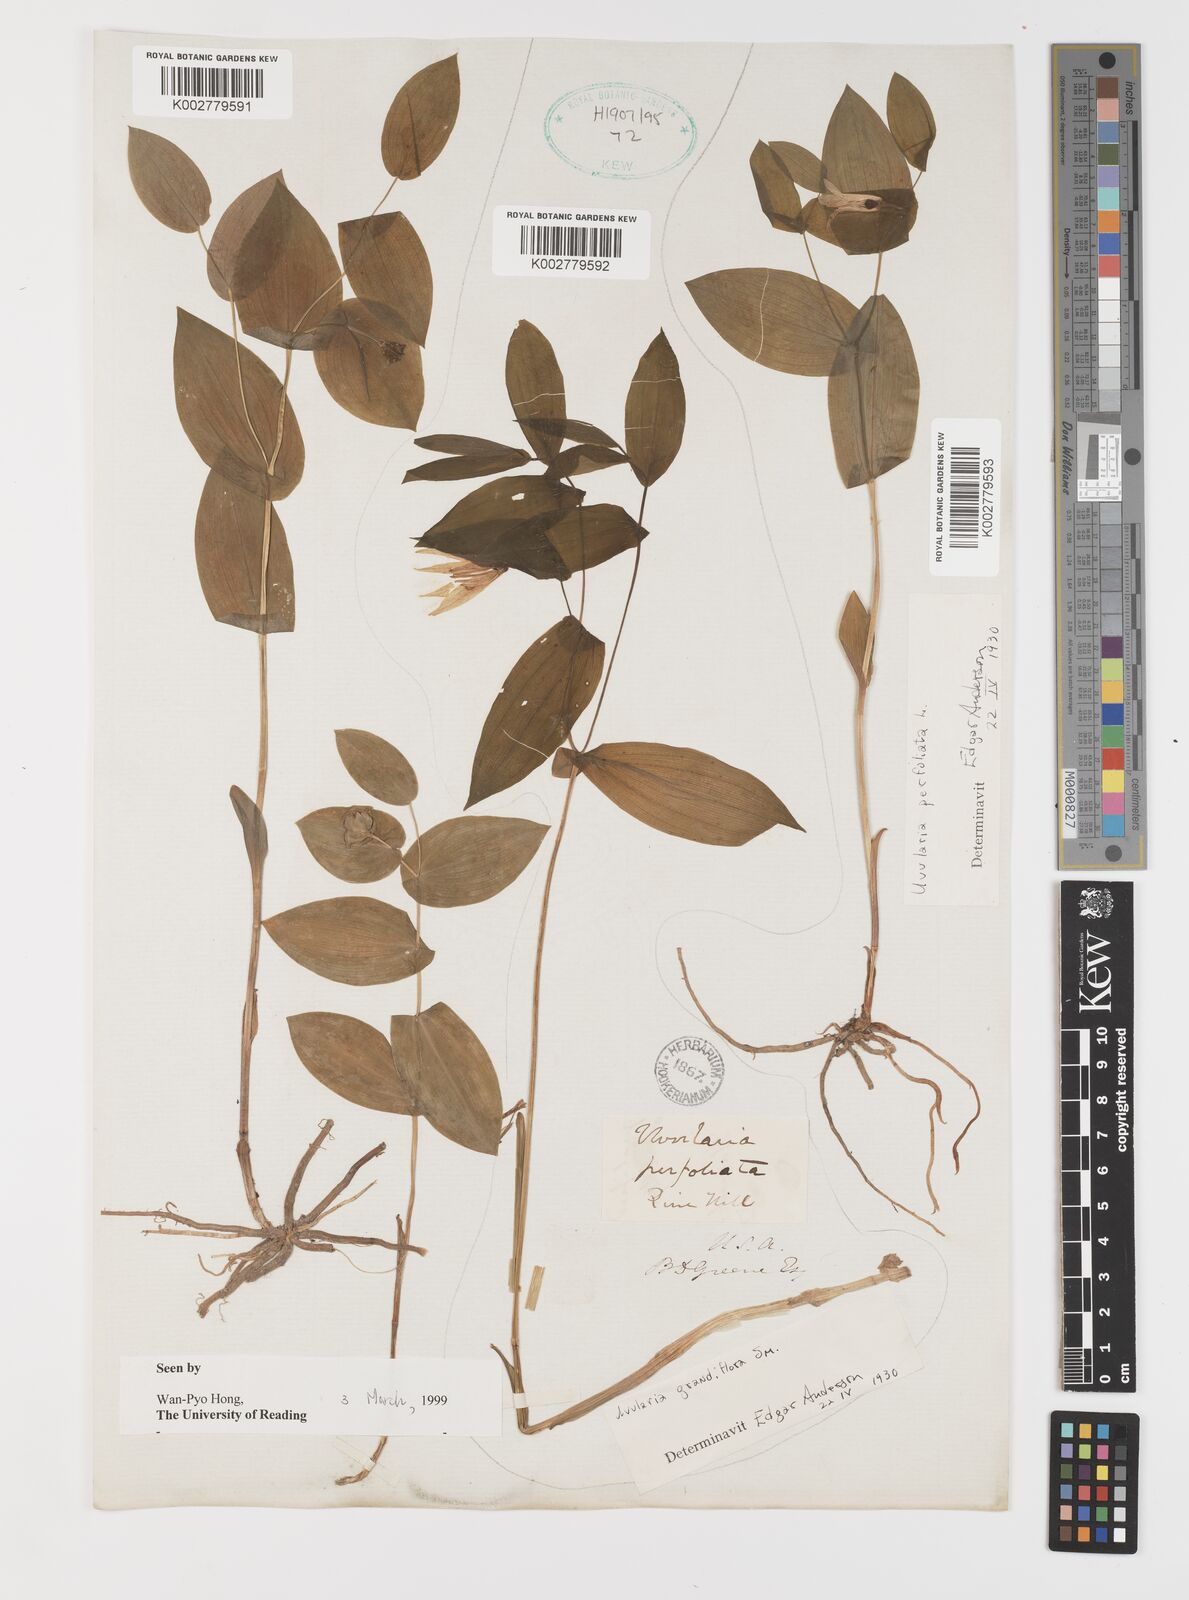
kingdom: Plantae
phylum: Tracheophyta
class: Liliopsida
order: Liliales
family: Colchicaceae
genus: Uvularia
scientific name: Uvularia perfoliata
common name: Perfoliate bellwort
